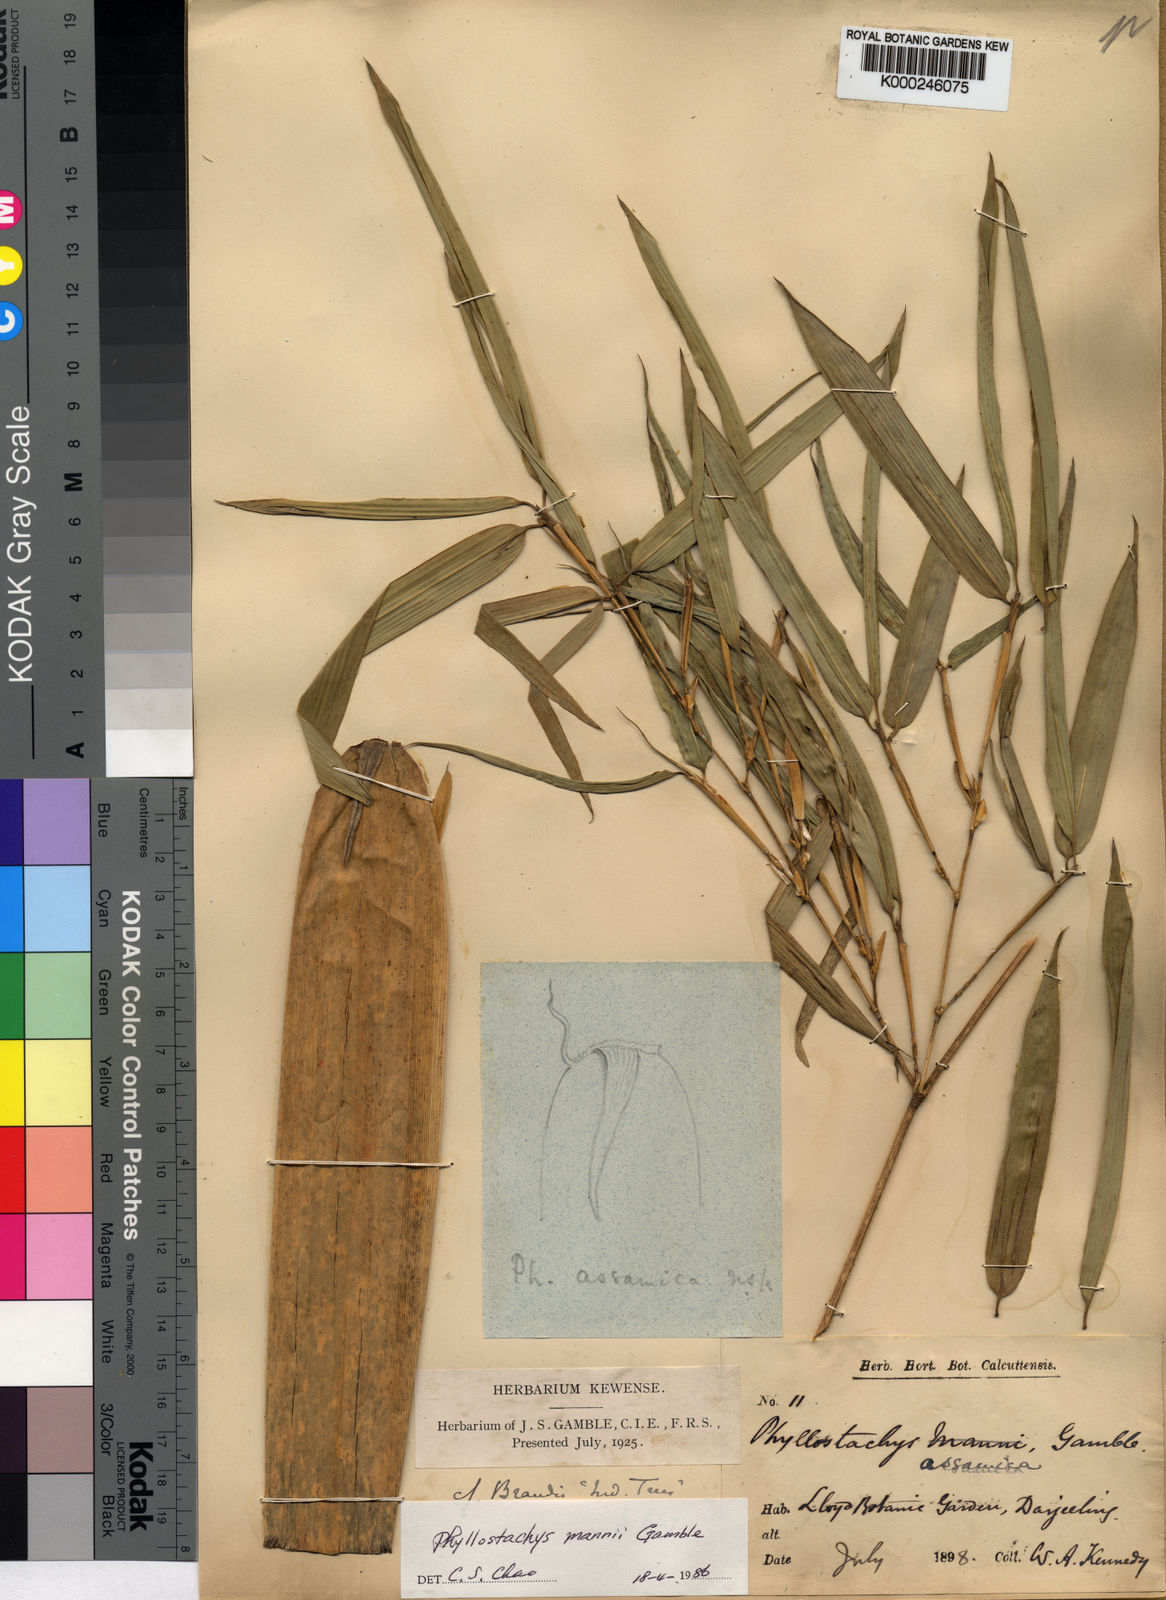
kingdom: Plantae
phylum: Tracheophyta
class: Liliopsida
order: Poales
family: Poaceae
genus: Phyllostachys
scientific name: Phyllostachys mannii
